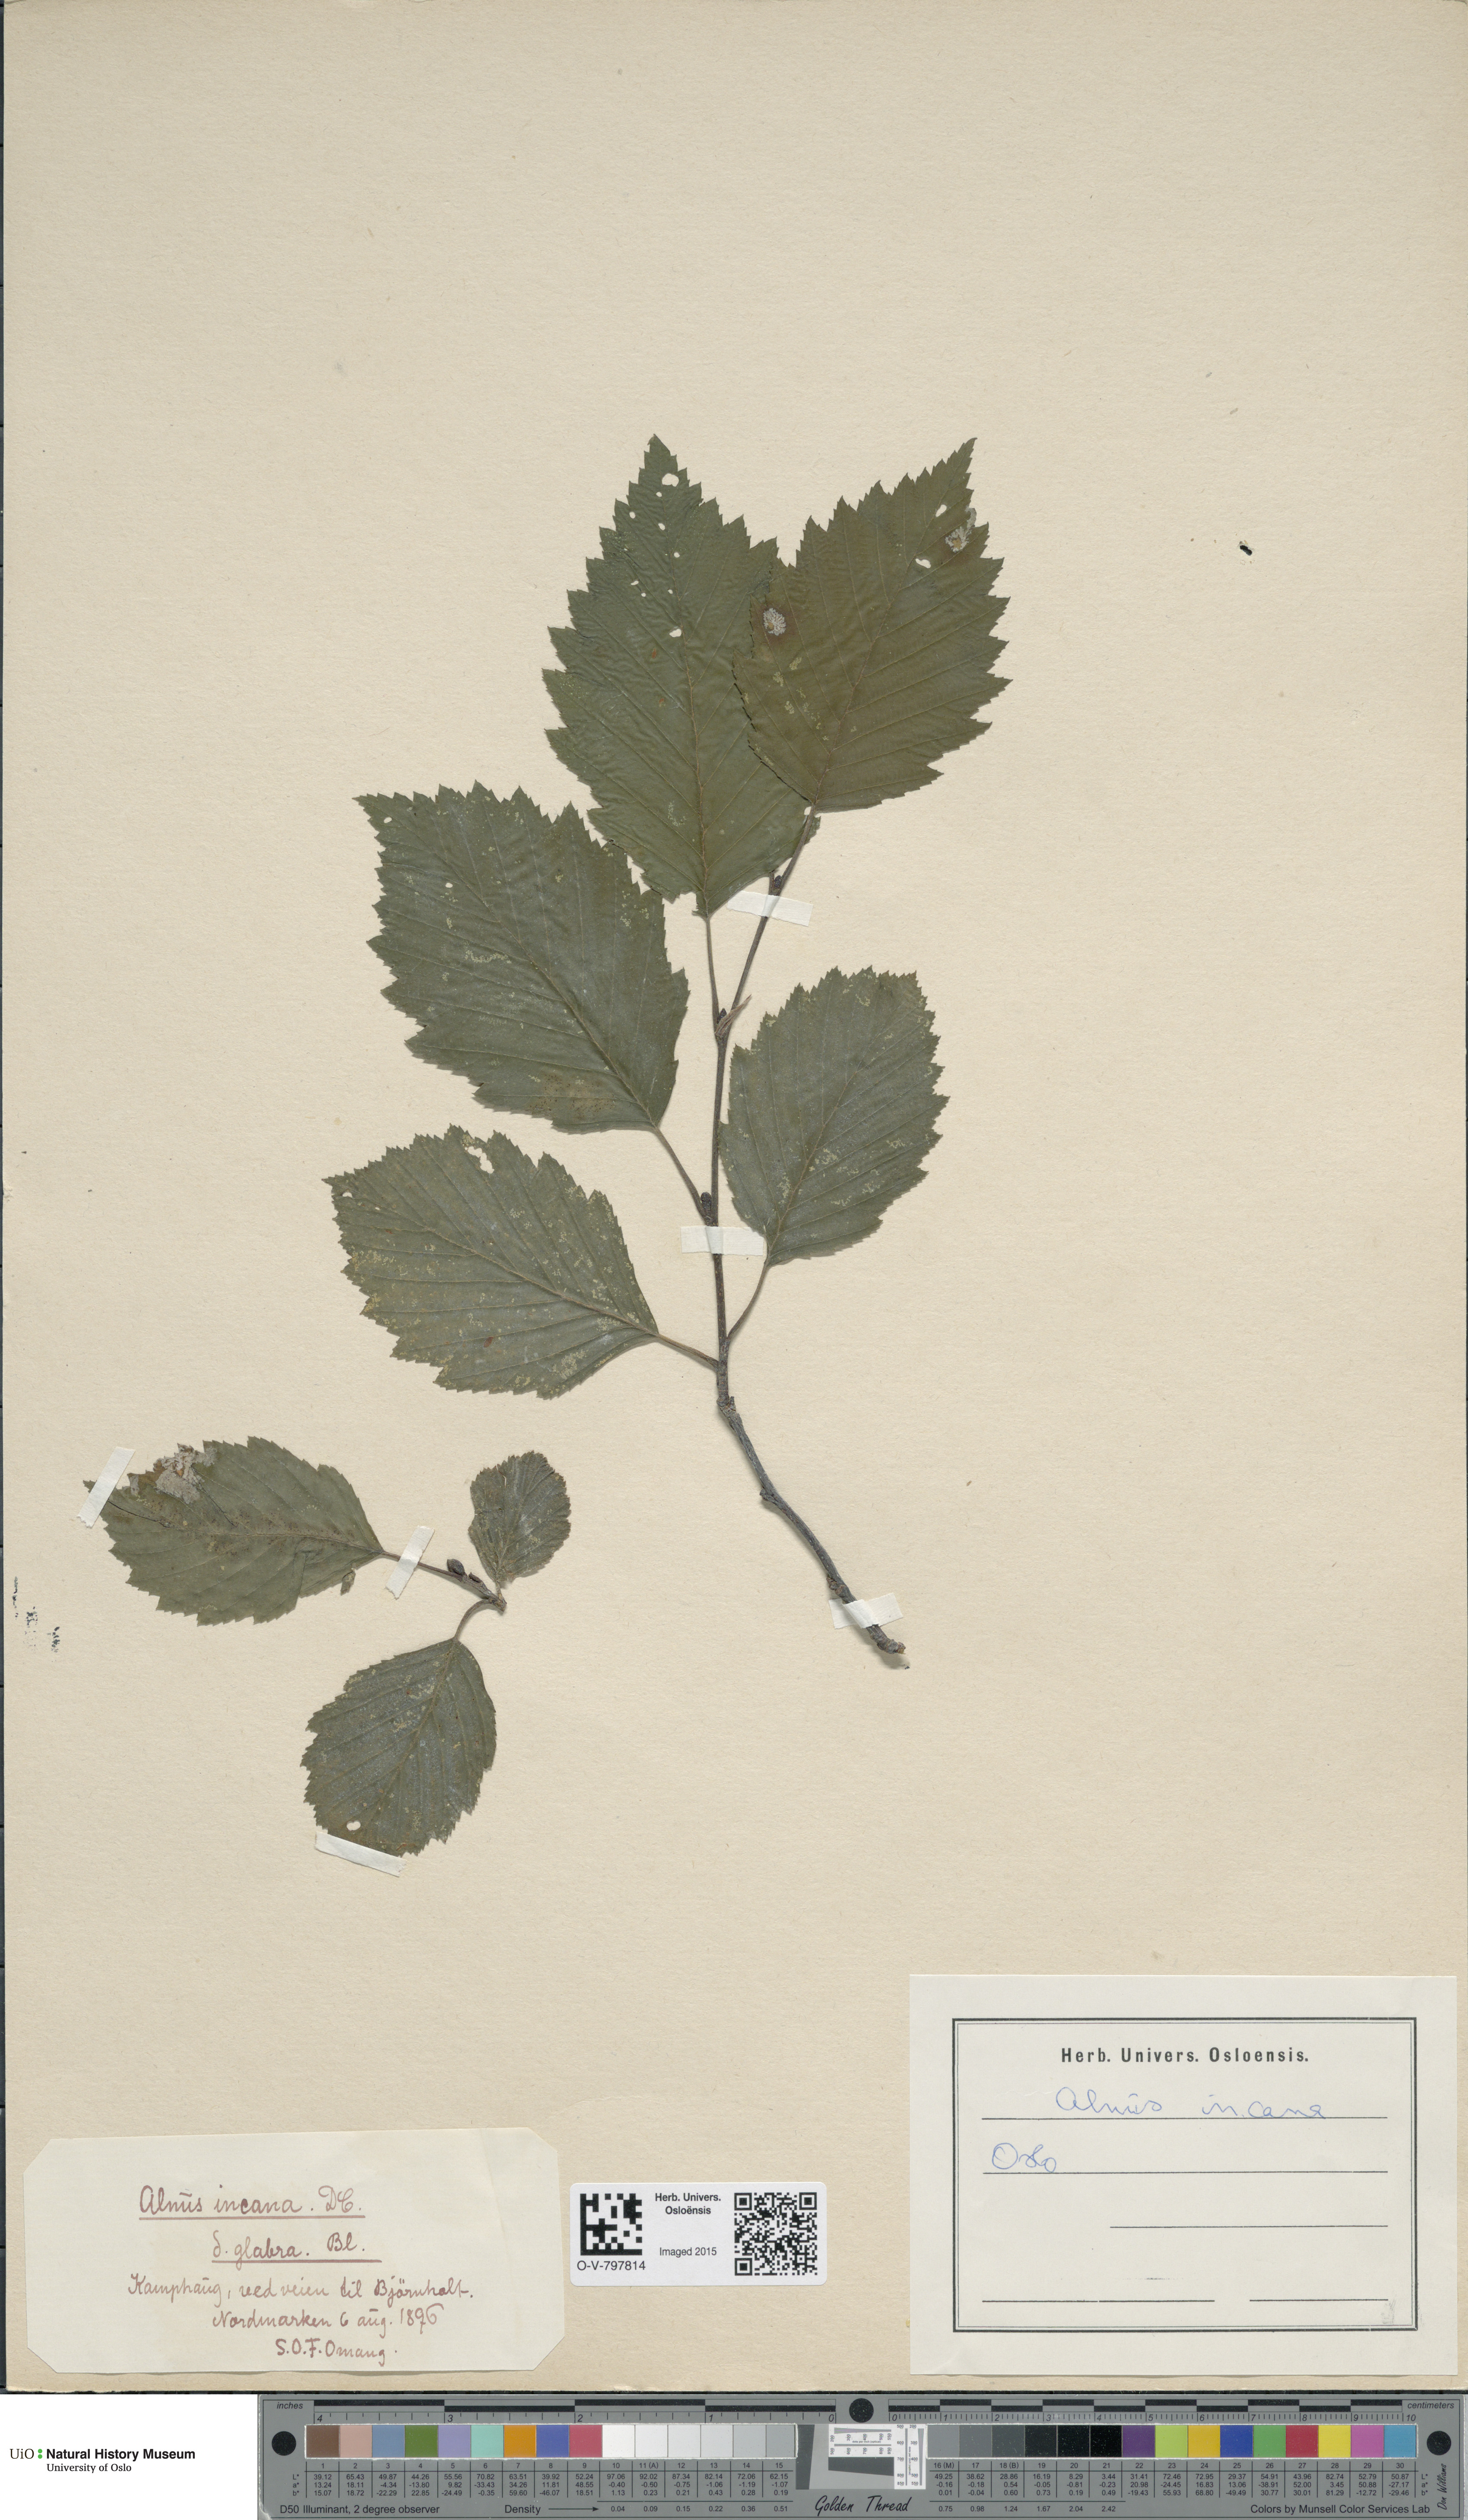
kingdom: Plantae
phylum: Tracheophyta
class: Magnoliopsida
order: Fagales
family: Betulaceae
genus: Alnus
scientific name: Alnus incana
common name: Grey alder
